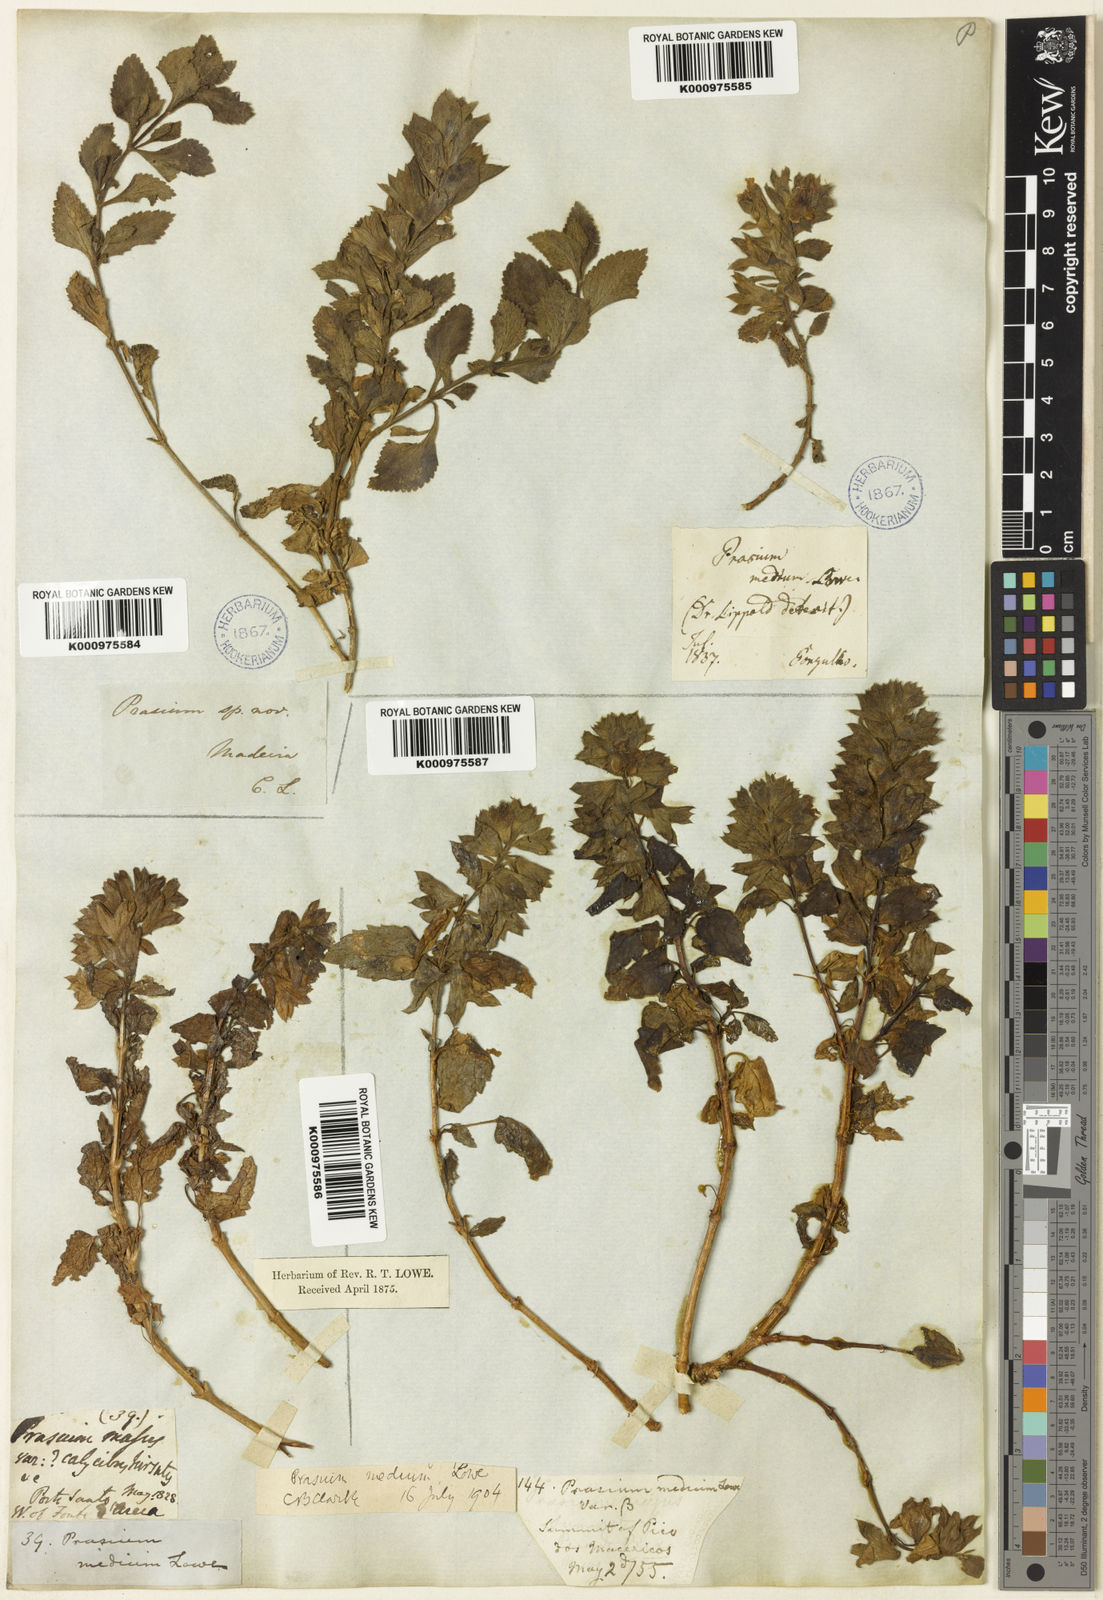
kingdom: Plantae
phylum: Tracheophyta
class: Magnoliopsida
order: Lamiales
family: Lamiaceae
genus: Prasium
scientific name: Prasium majus
